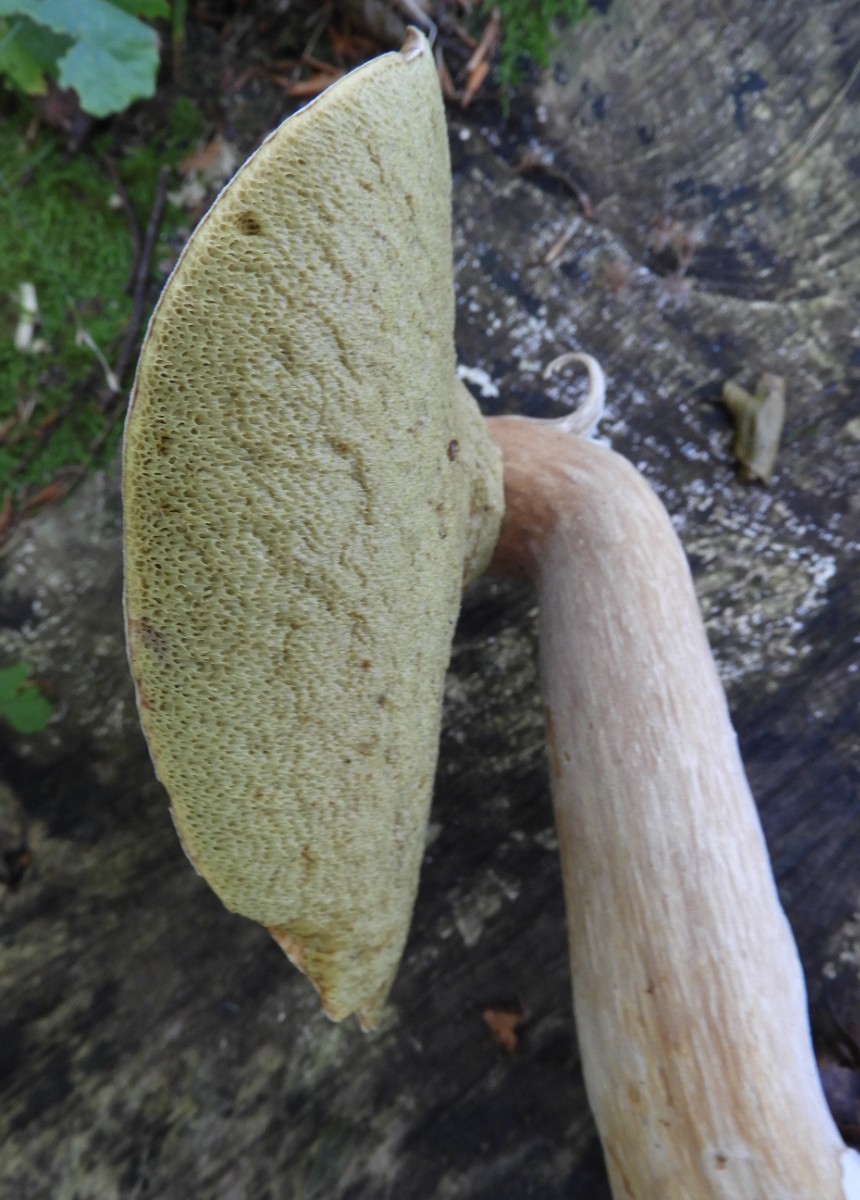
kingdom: Fungi
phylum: Basidiomycota
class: Agaricomycetes
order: Boletales
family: Boletaceae
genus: Boletus
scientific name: Boletus edulis
